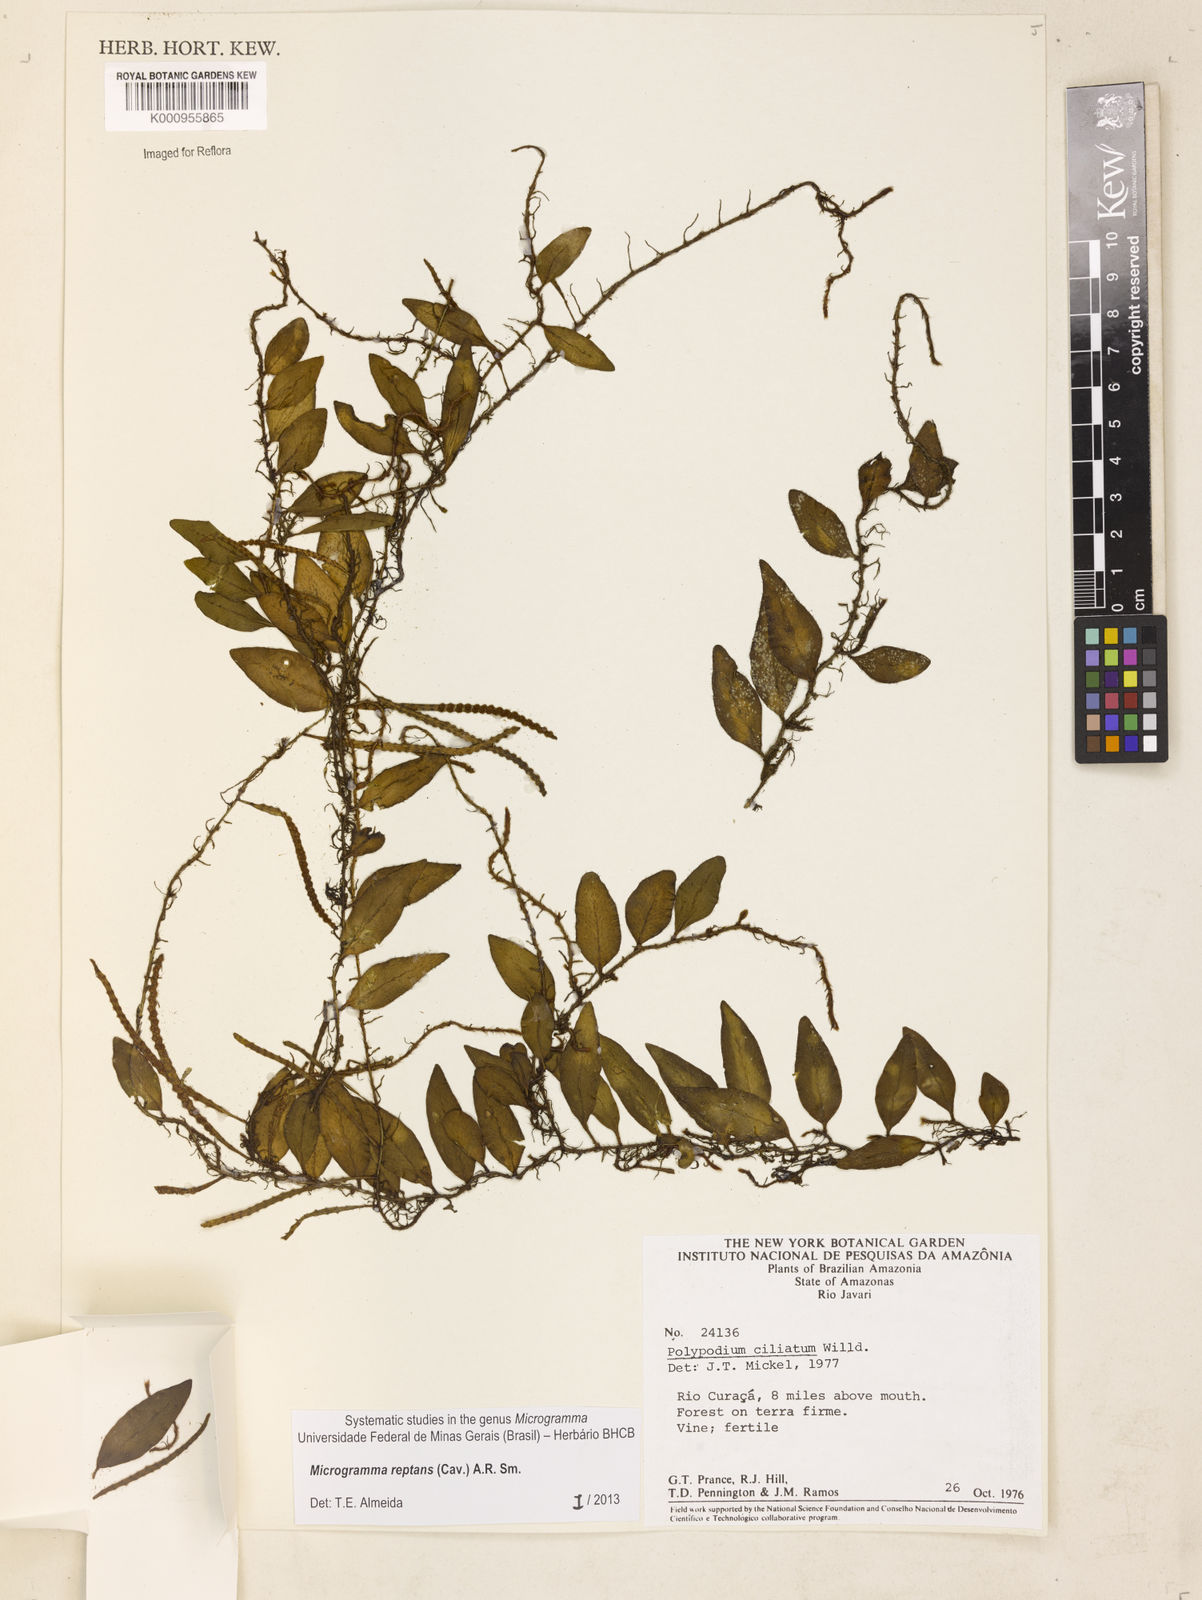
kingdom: Plantae
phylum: Tracheophyta
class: Polypodiopsida
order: Polypodiales
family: Polypodiaceae
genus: Microgramma
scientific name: Microgramma reptans
